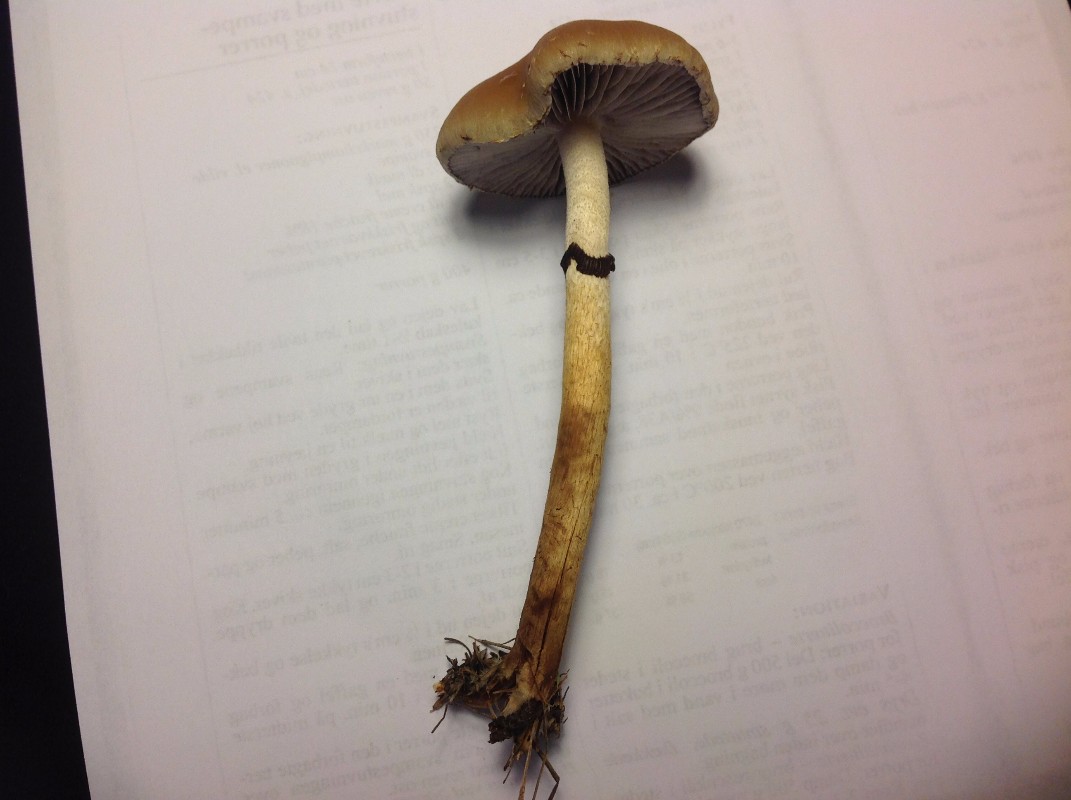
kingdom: Fungi
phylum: Basidiomycota
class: Agaricomycetes
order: Agaricales
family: Strophariaceae
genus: Leratiomyces
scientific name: Leratiomyces squamosus
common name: skællet bredblad
